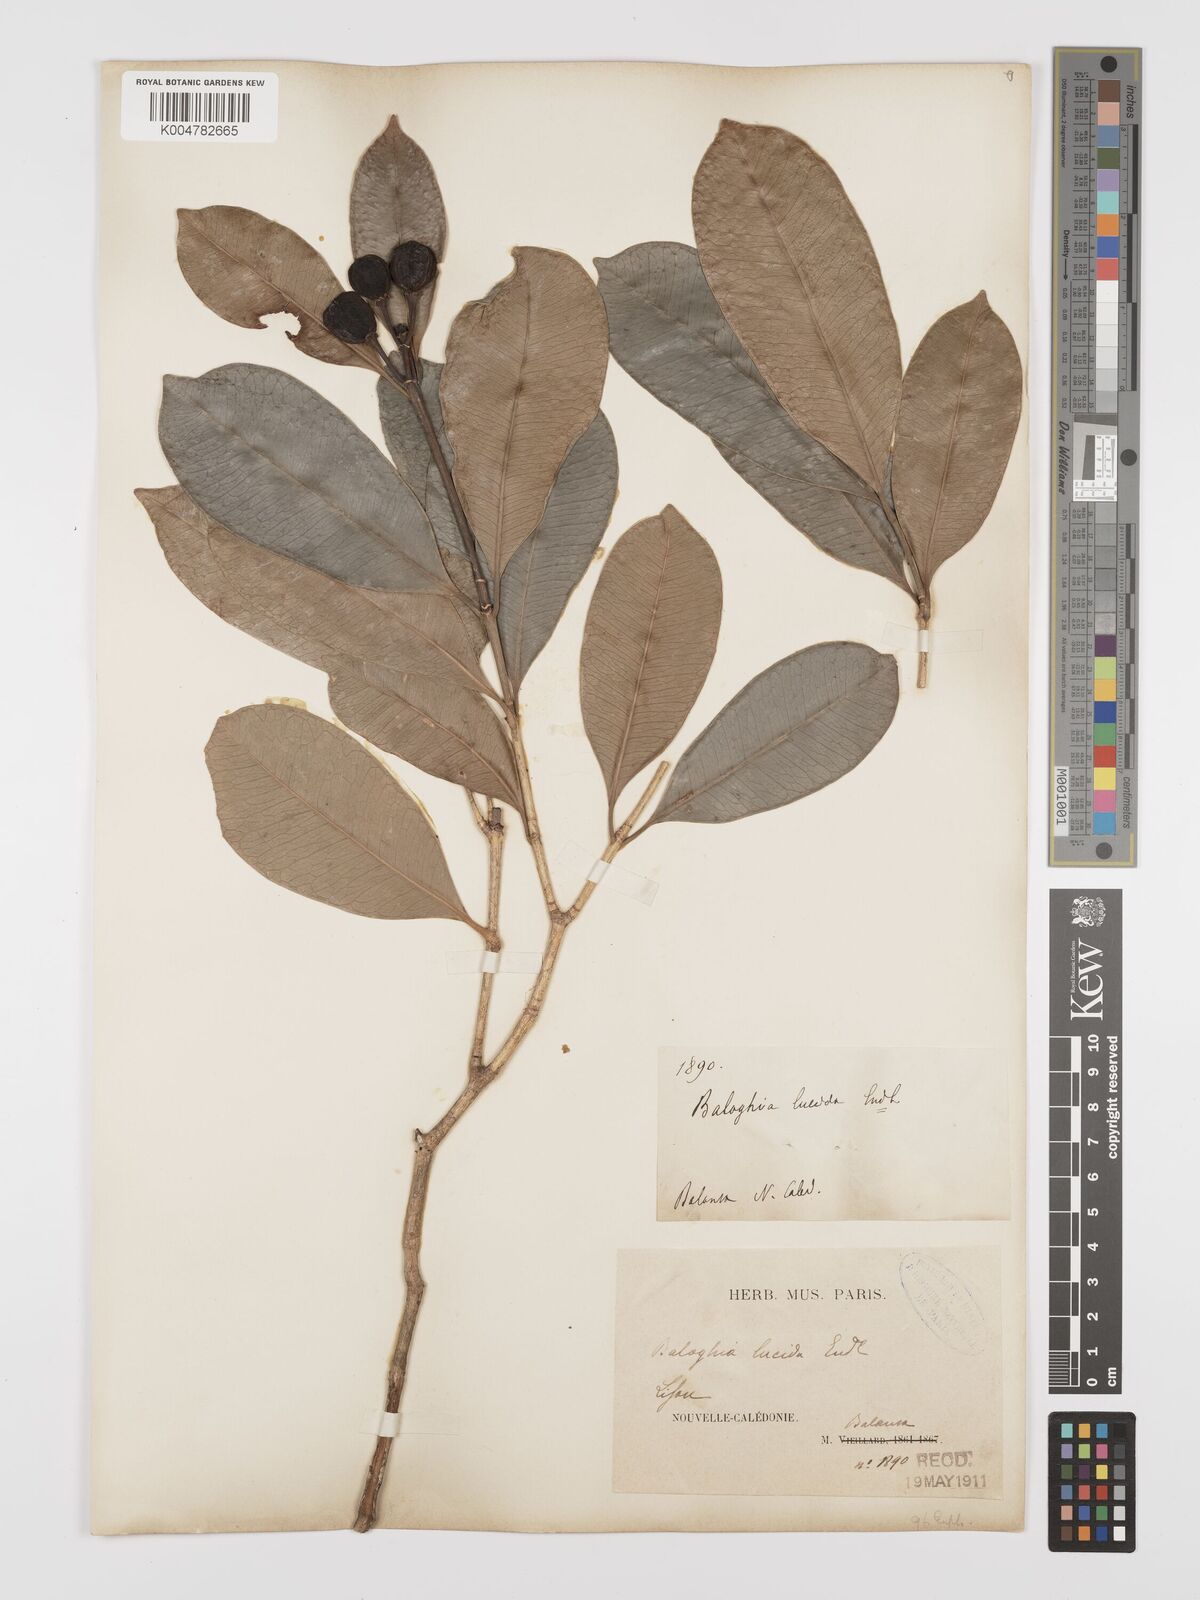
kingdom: Plantae
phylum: Tracheophyta
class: Magnoliopsida
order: Malpighiales
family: Euphorbiaceae
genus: Baloghia
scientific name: Baloghia inophylla
